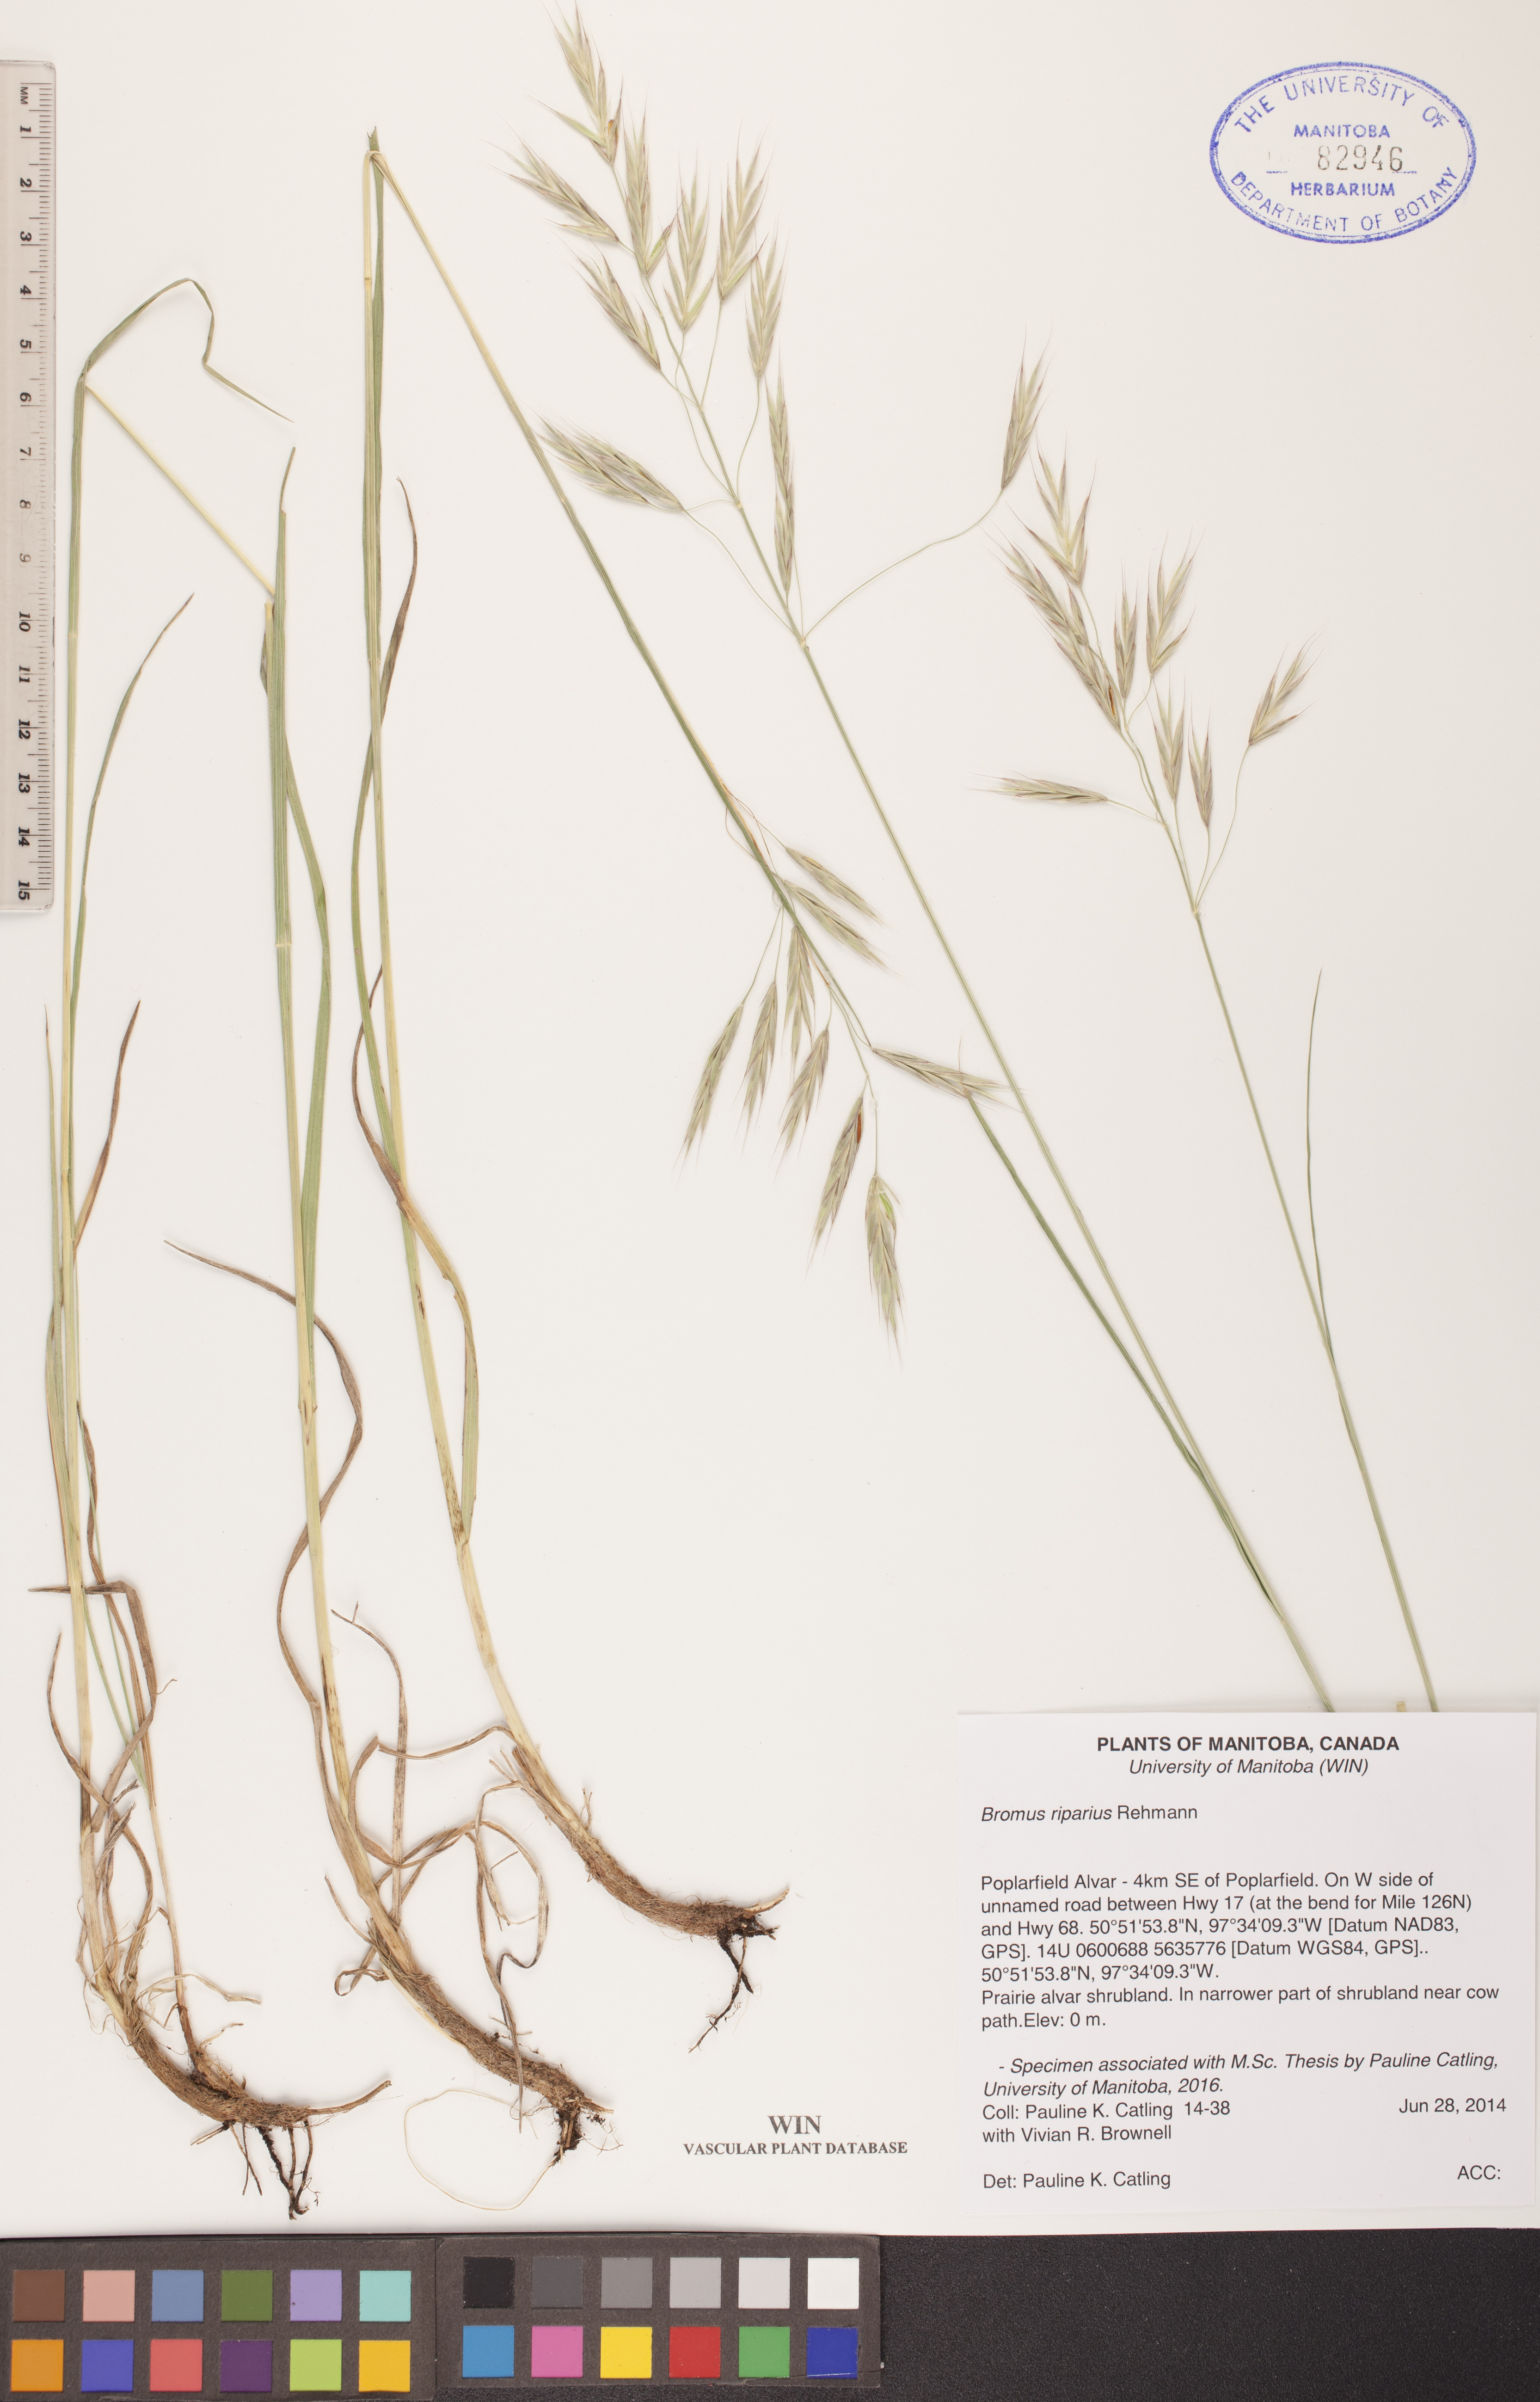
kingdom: Plantae
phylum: Tracheophyta
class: Liliopsida
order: Poales
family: Poaceae
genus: Bromus
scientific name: Bromus riparius
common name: Meadow brome
